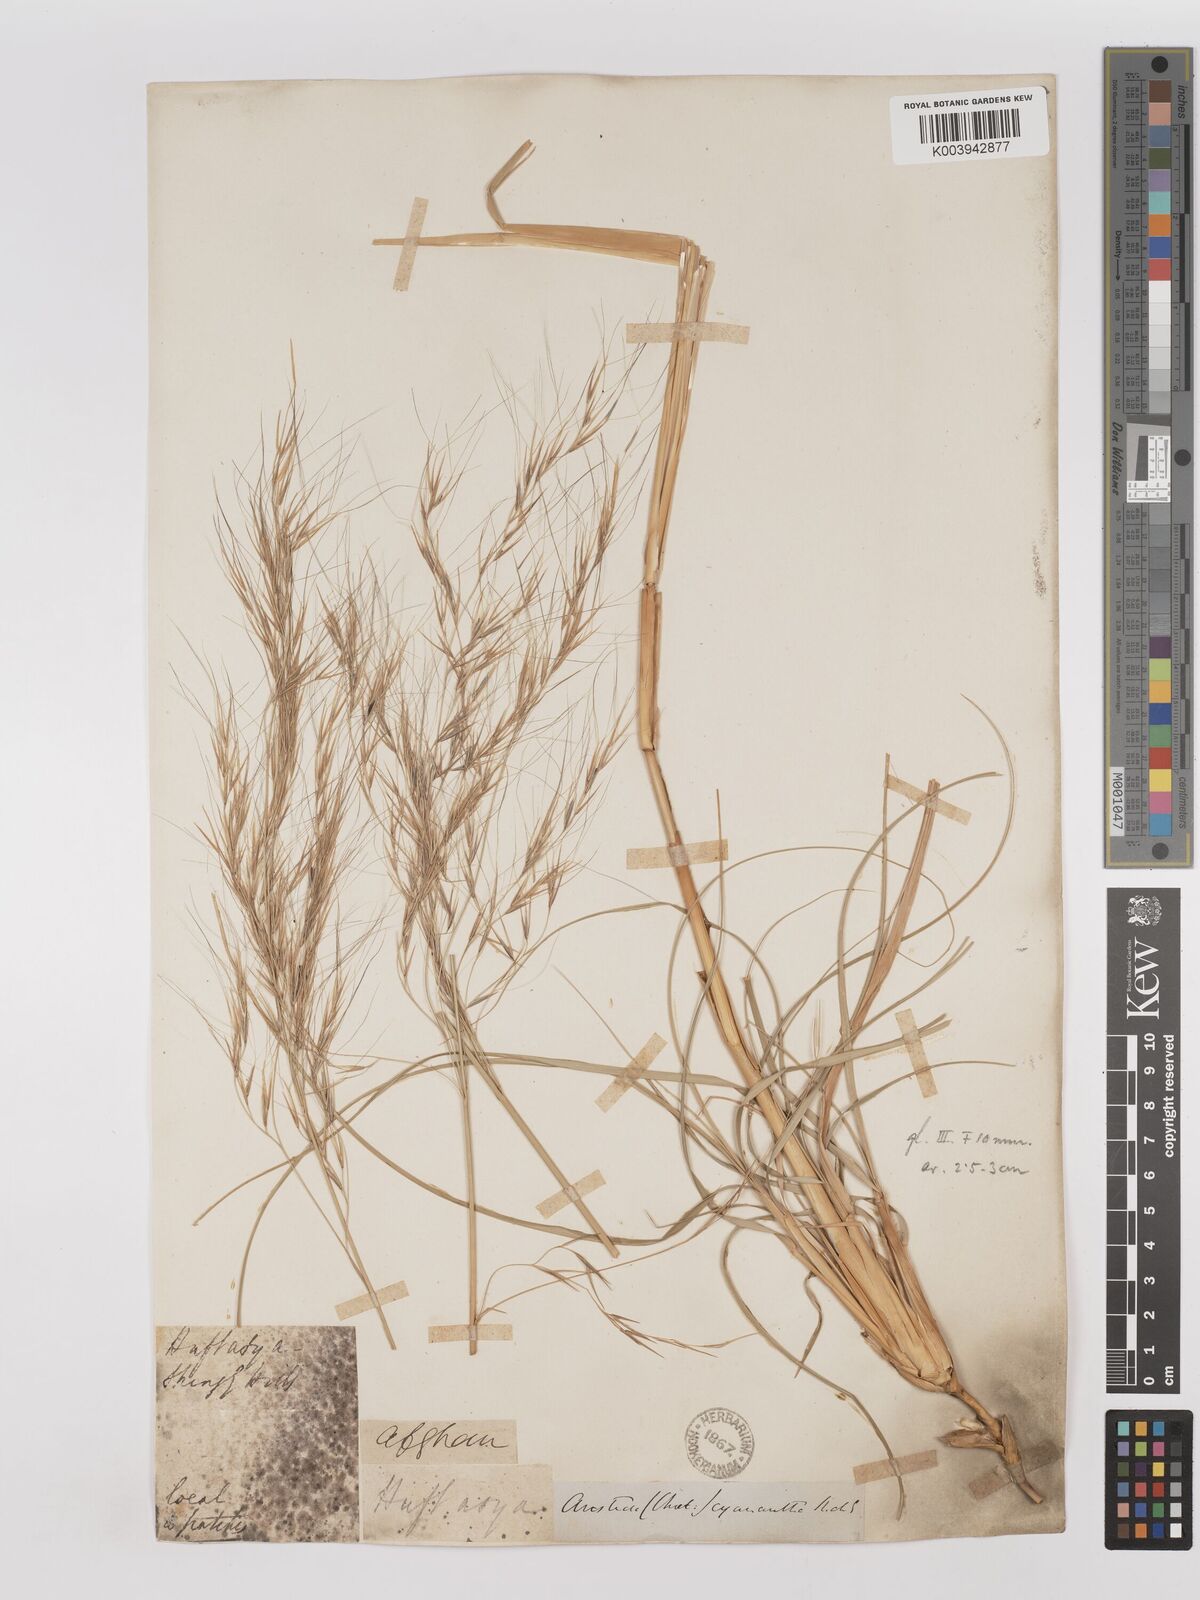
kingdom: Plantae
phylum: Tracheophyta
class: Liliopsida
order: Poales
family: Poaceae
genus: Aristida
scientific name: Aristida cyanantha
